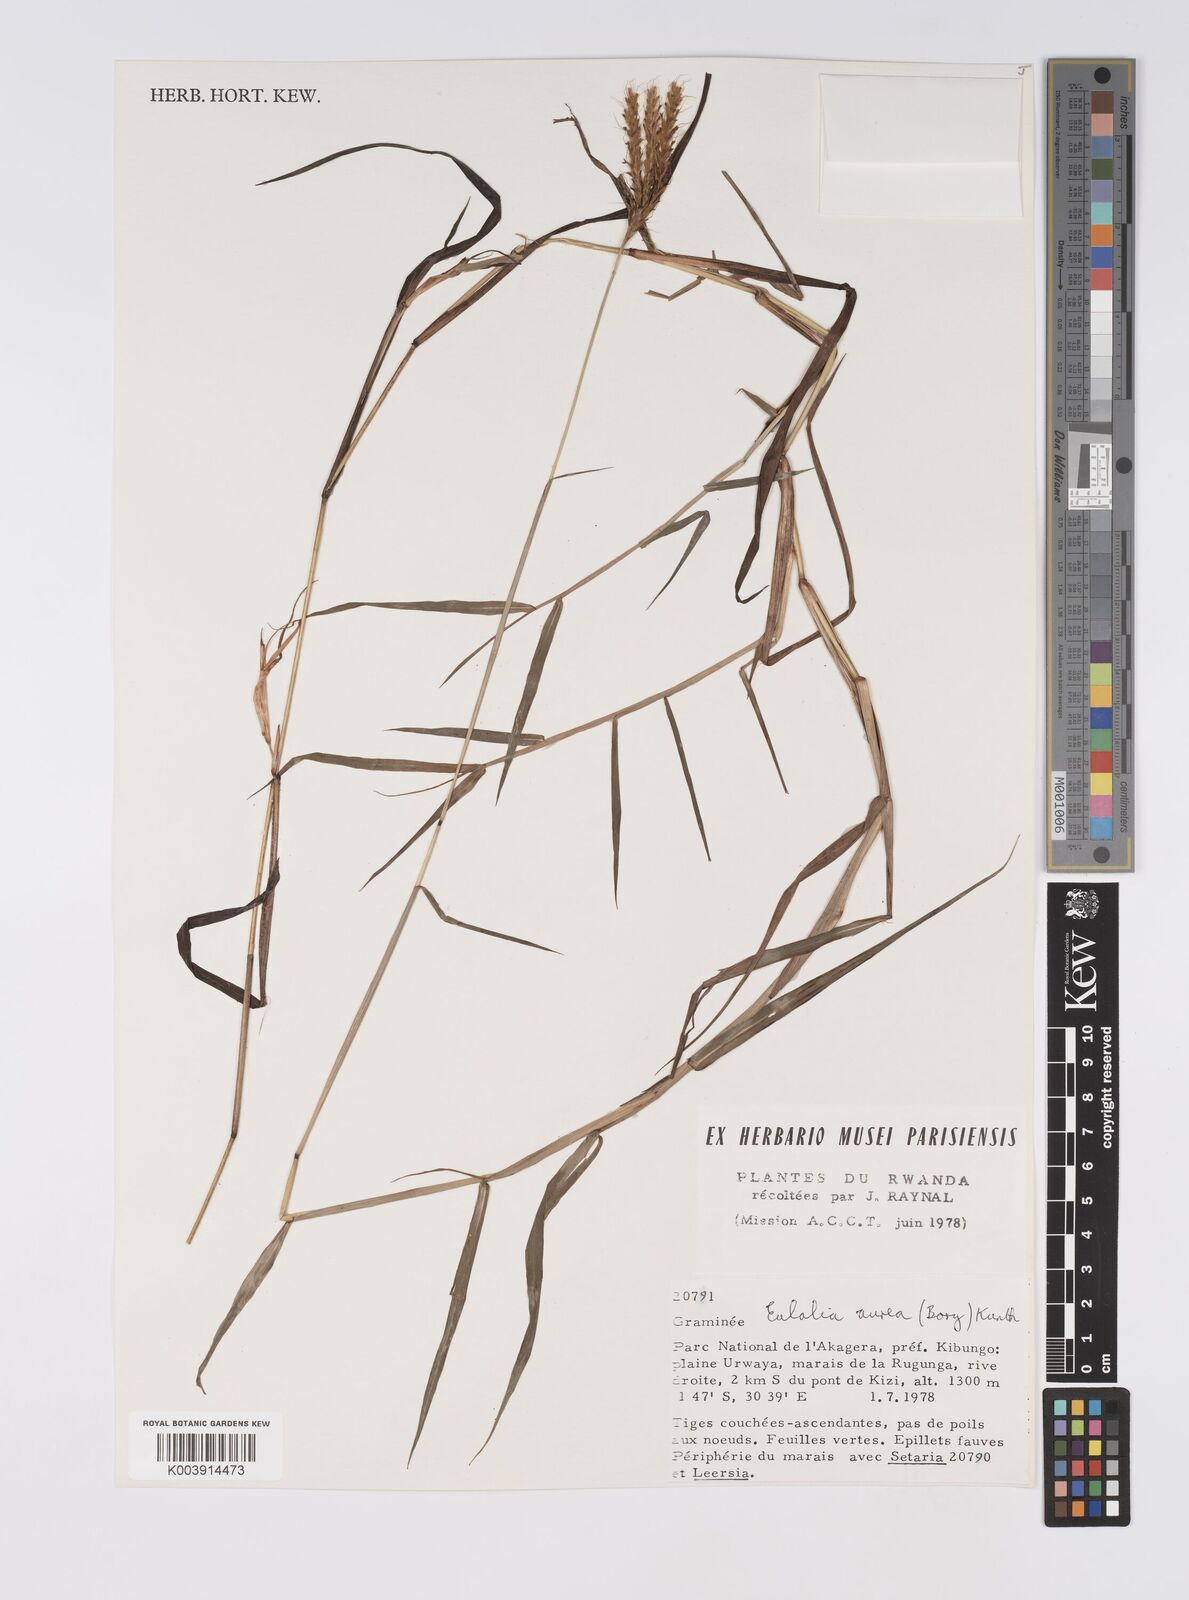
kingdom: Plantae
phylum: Tracheophyta
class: Liliopsida
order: Poales
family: Poaceae
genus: Eulalia
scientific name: Eulalia aurea
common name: Silky browntop
